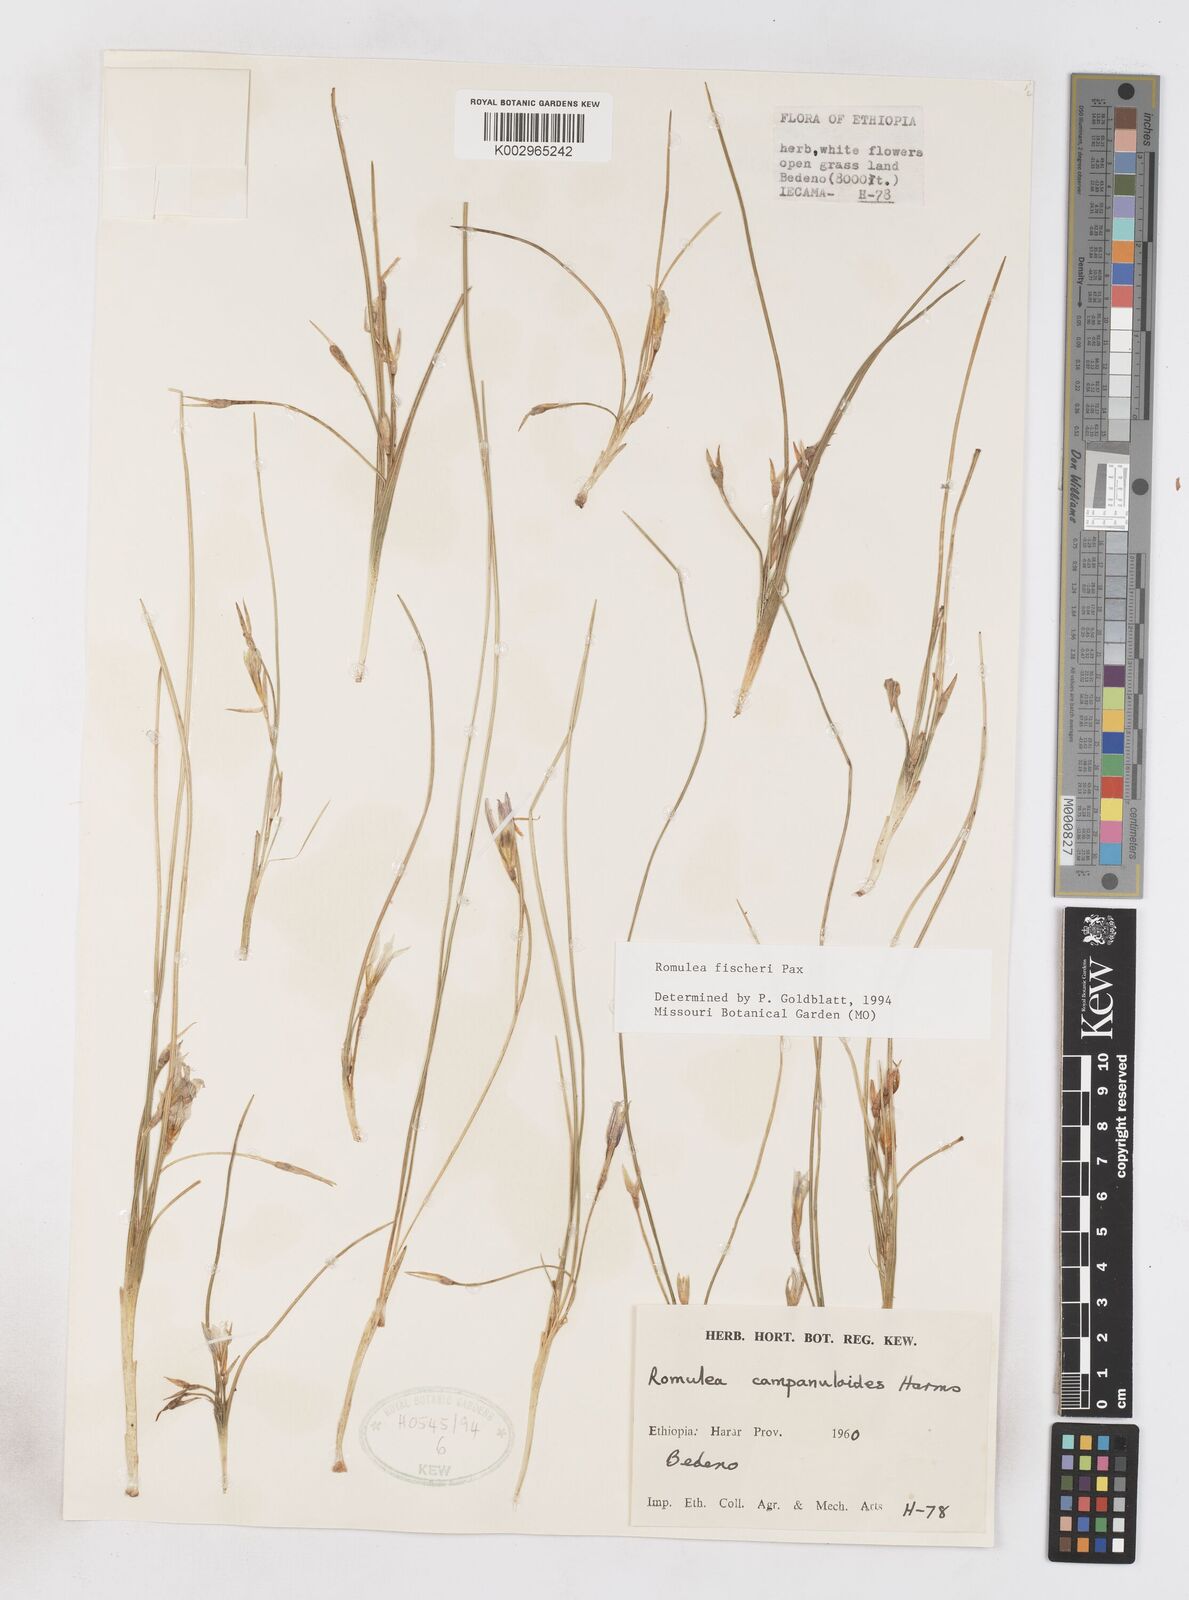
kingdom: Plantae
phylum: Tracheophyta
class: Liliopsida
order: Asparagales
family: Iridaceae
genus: Romulea
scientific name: Romulea fischeri
